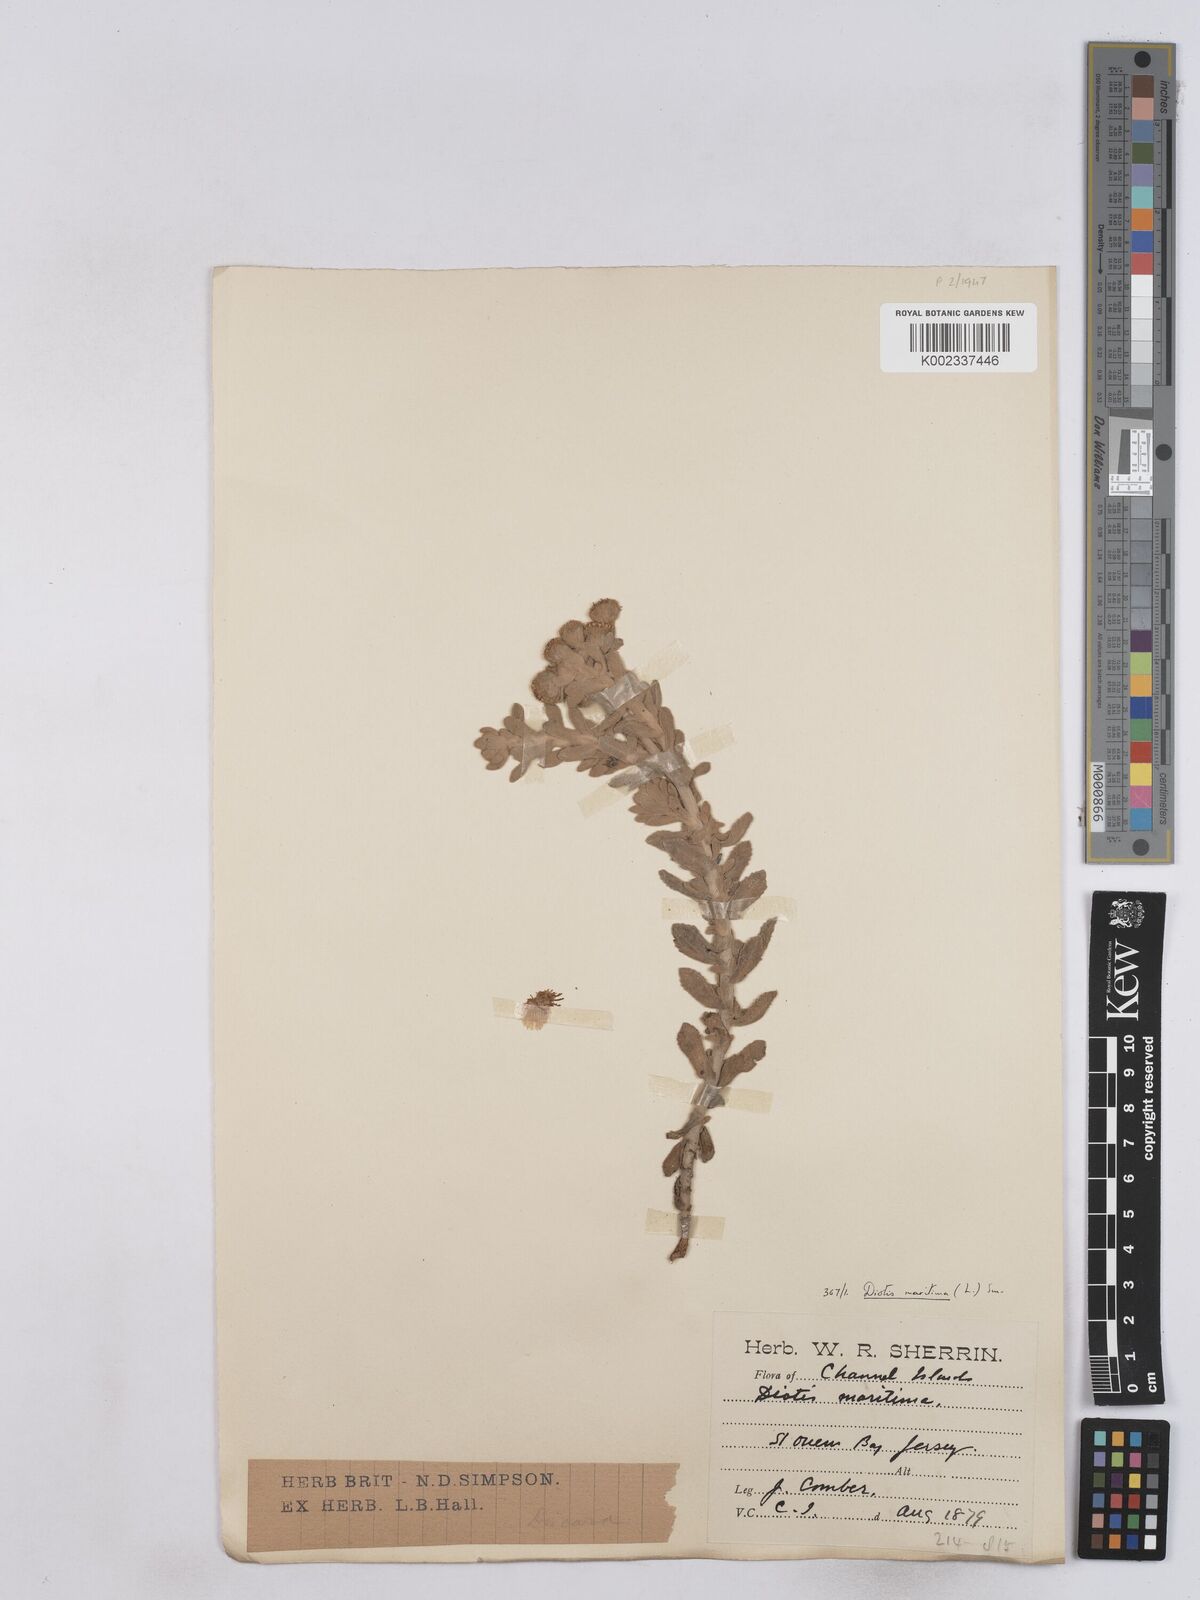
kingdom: Plantae
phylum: Tracheophyta
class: Magnoliopsida
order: Asterales
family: Asteraceae
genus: Achillea
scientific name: Achillea maritima
